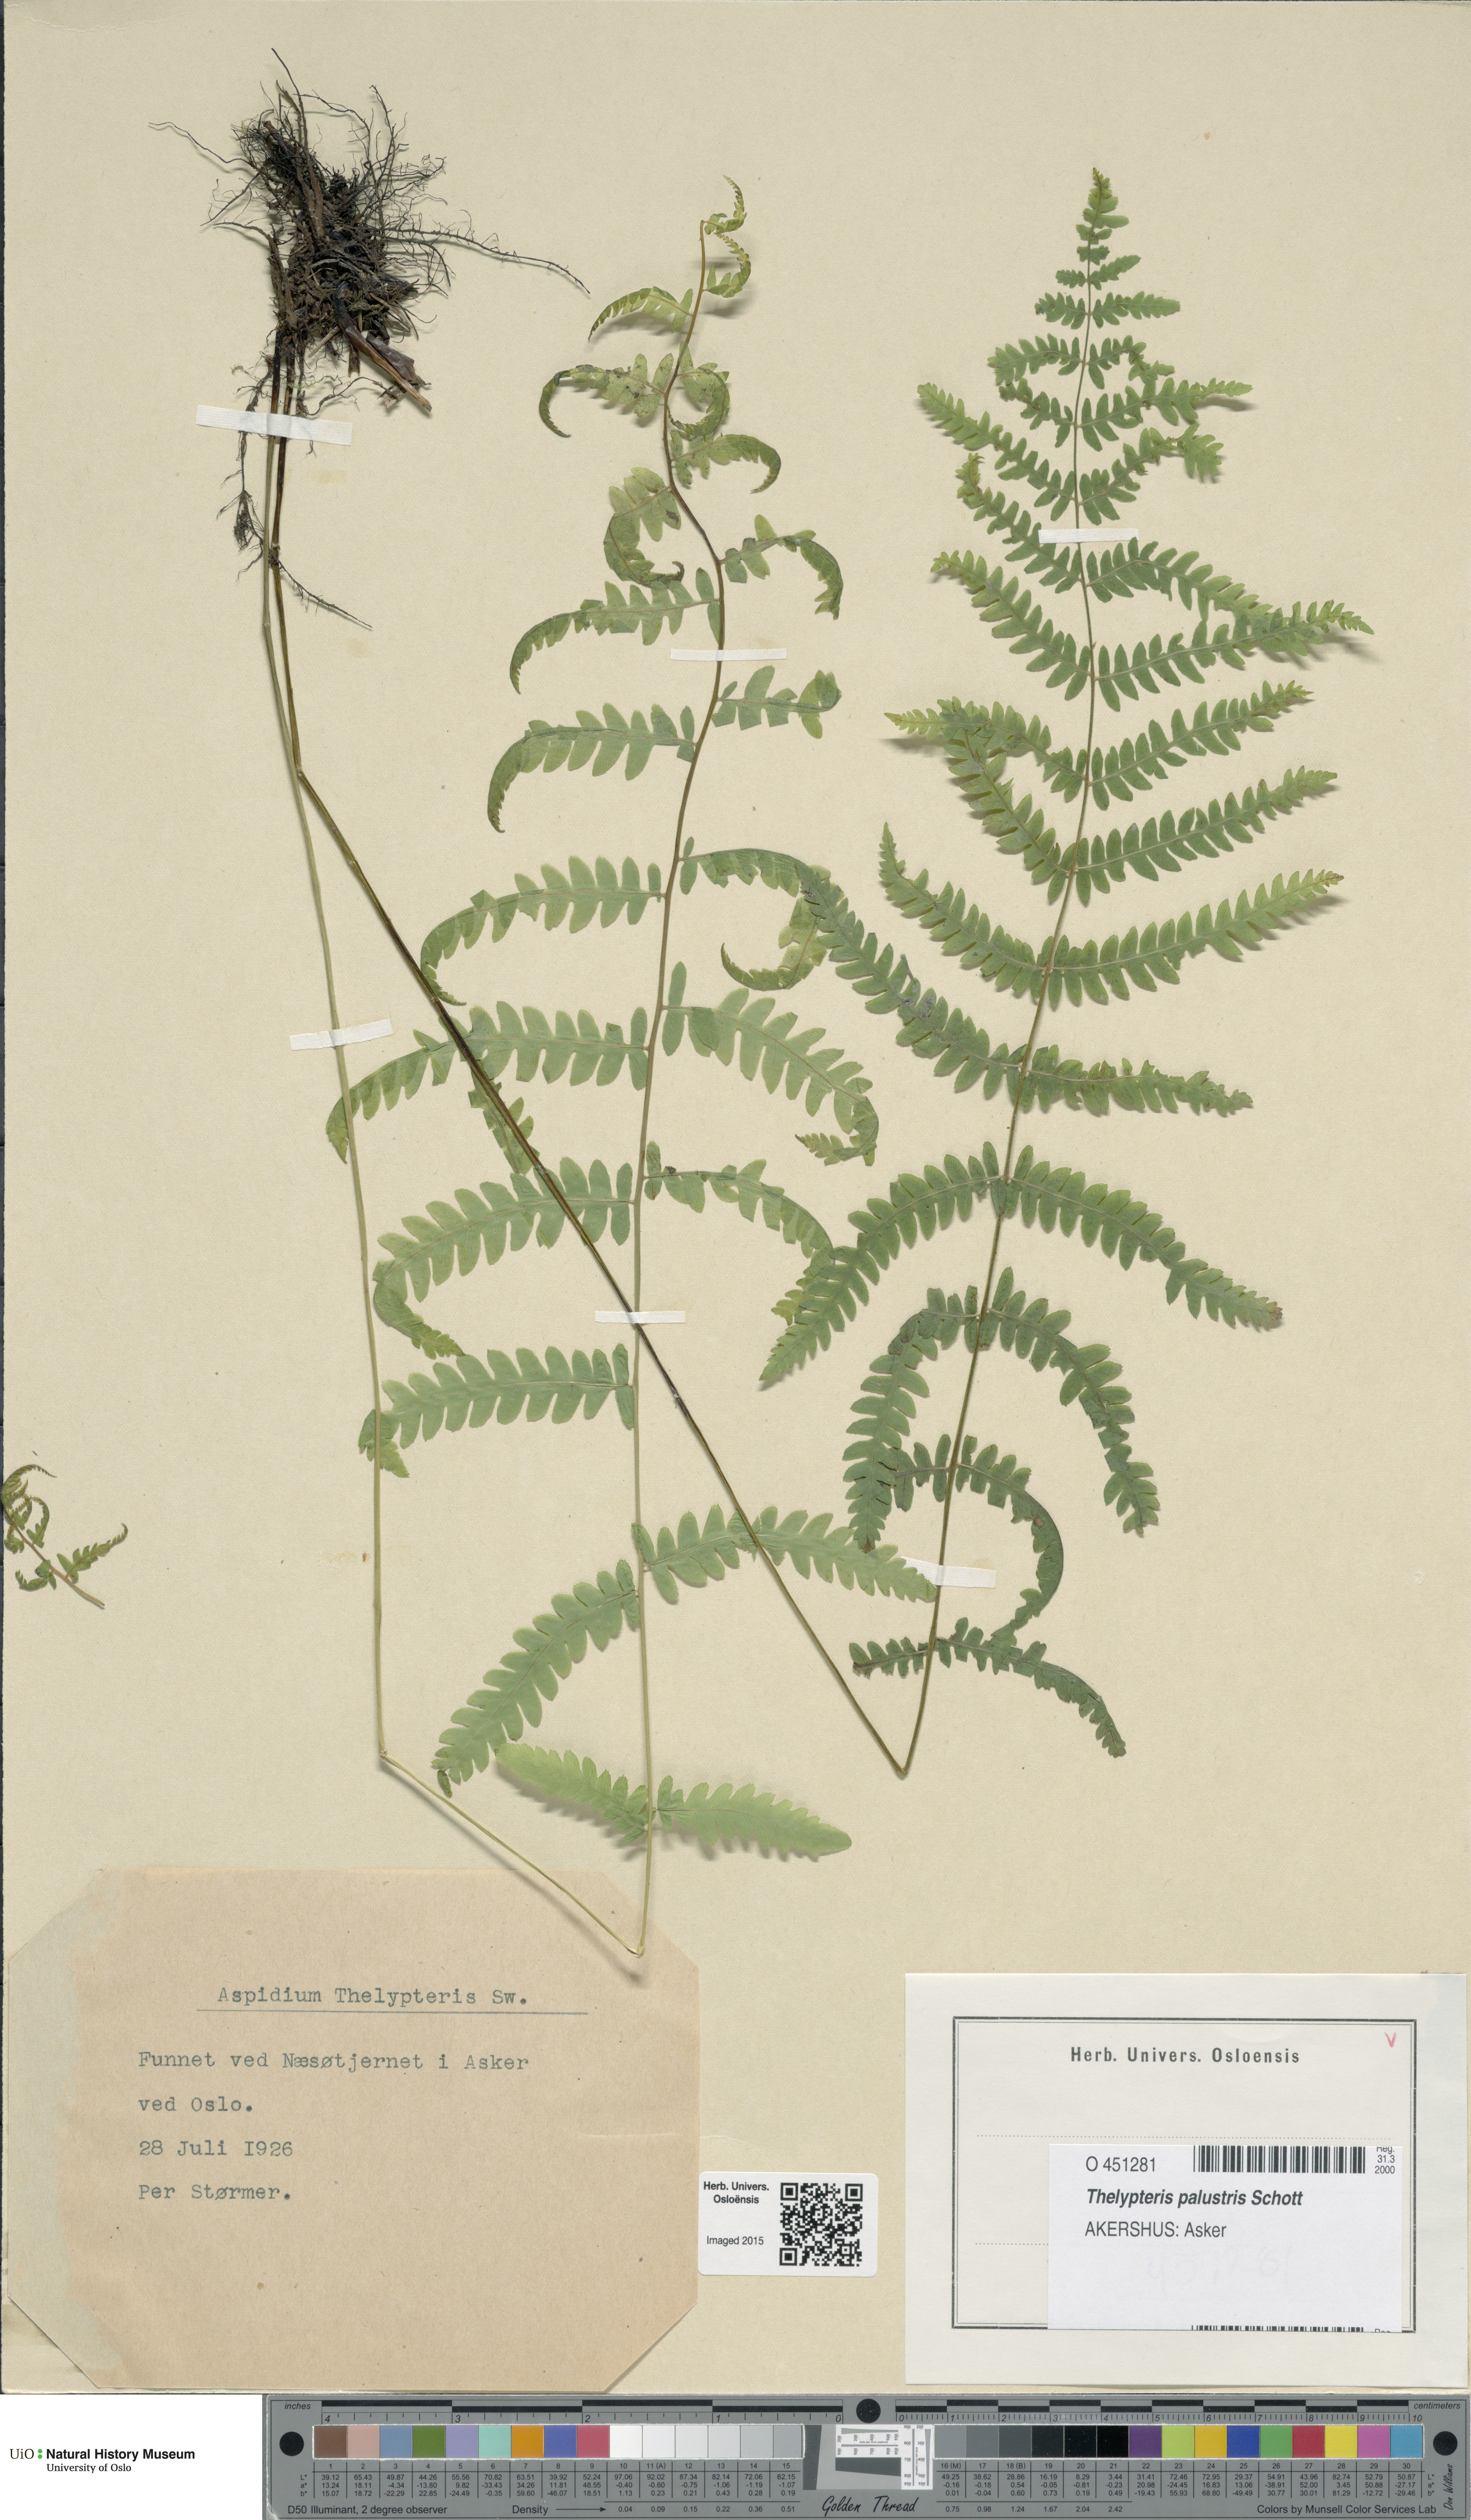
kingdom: Plantae
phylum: Tracheophyta
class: Polypodiopsida
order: Polypodiales
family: Thelypteridaceae
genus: Thelypteris
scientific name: Thelypteris palustris
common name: Marsh fern
